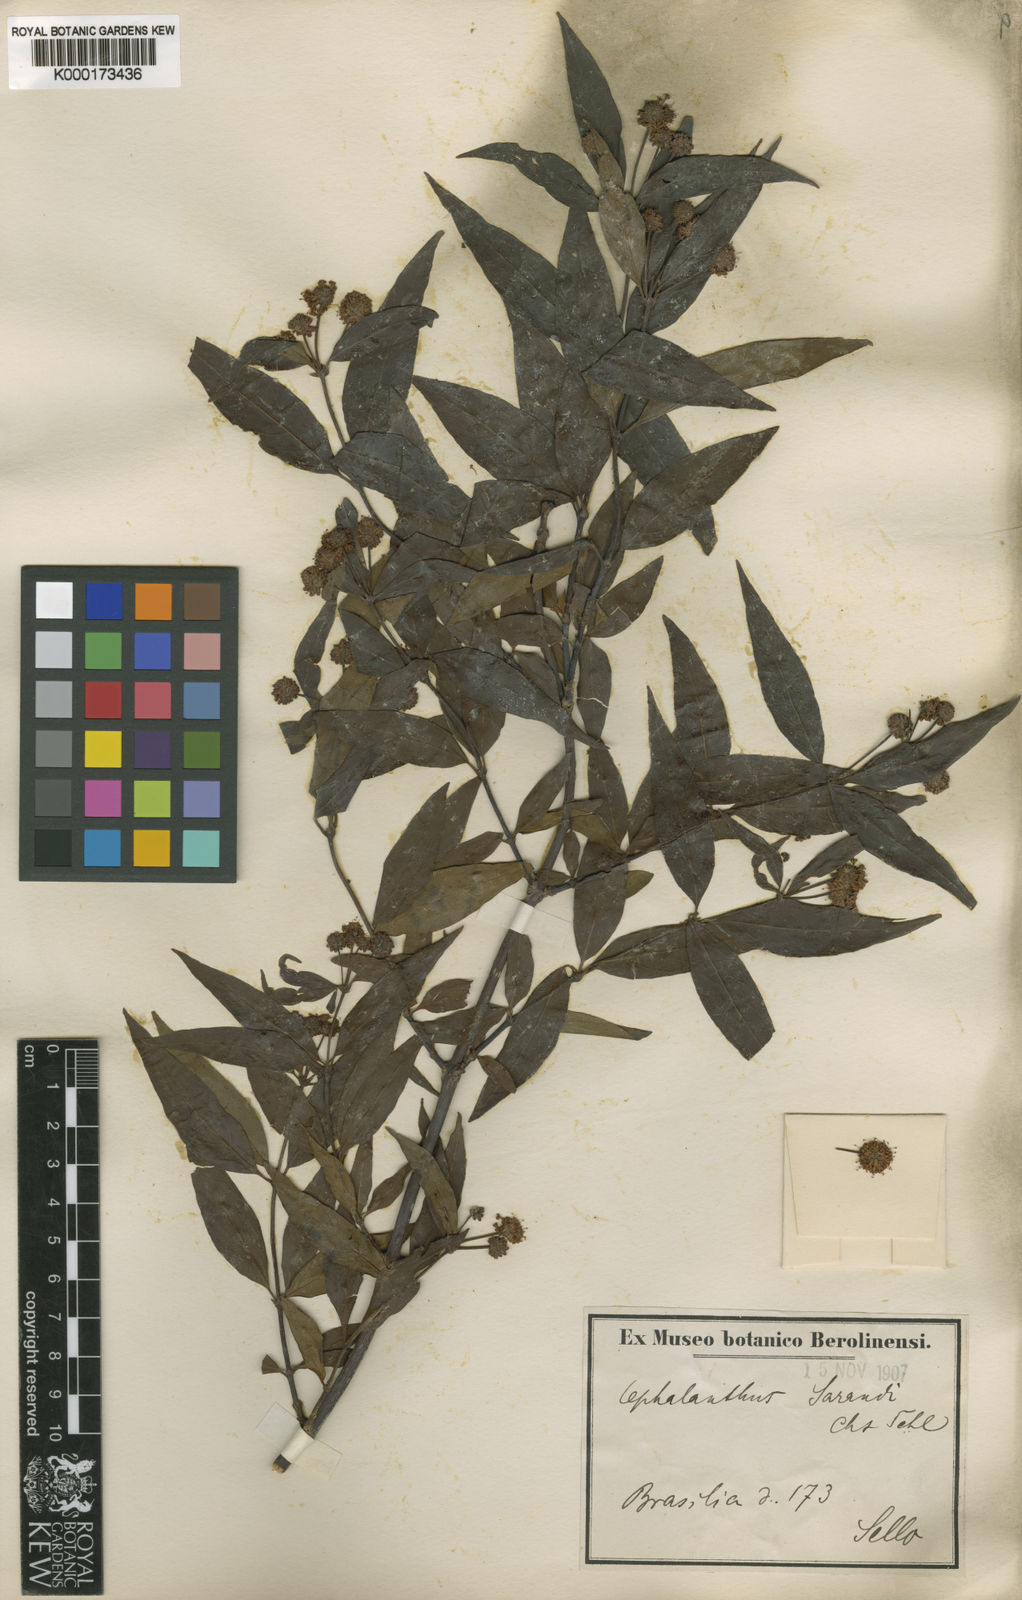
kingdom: Plantae
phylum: Tracheophyta
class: Magnoliopsida
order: Gentianales
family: Rubiaceae
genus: Cephalanthus
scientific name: Cephalanthus glabratus
